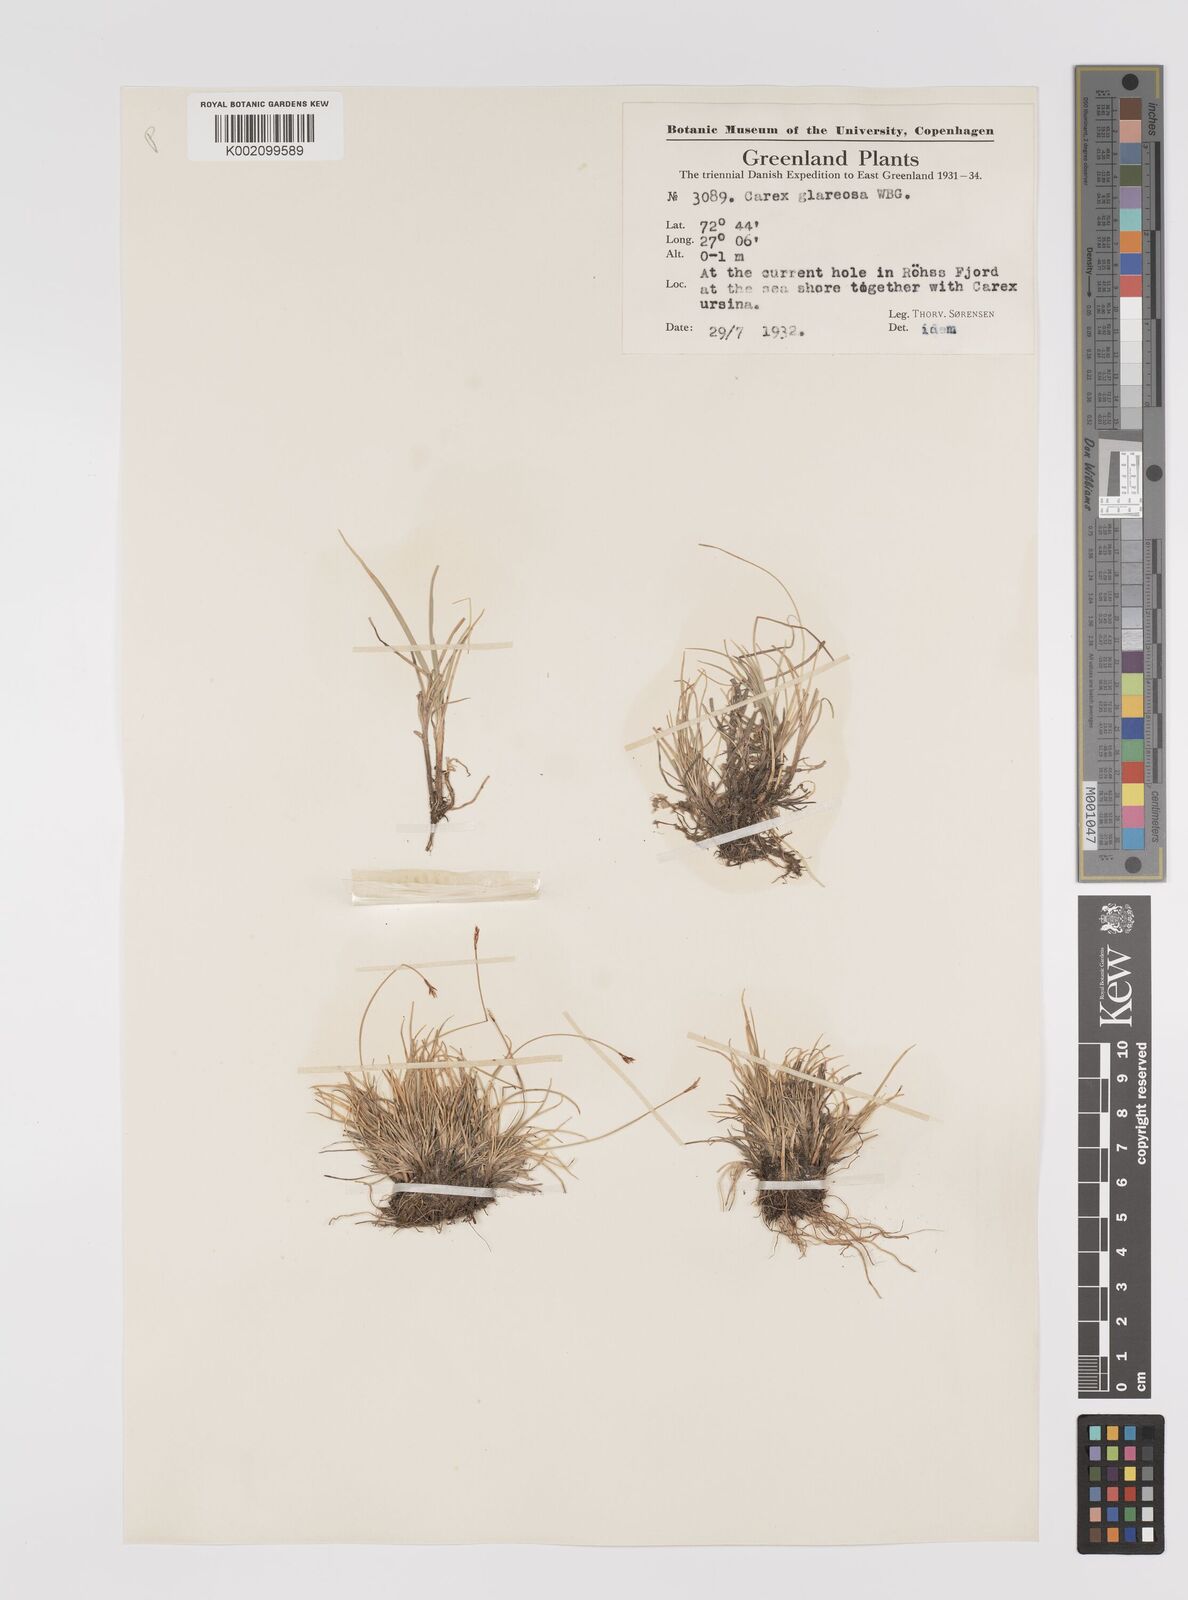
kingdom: Plantae
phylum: Tracheophyta
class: Liliopsida
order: Poales
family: Cyperaceae
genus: Carex
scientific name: Carex glareosa
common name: Clustered sedge
